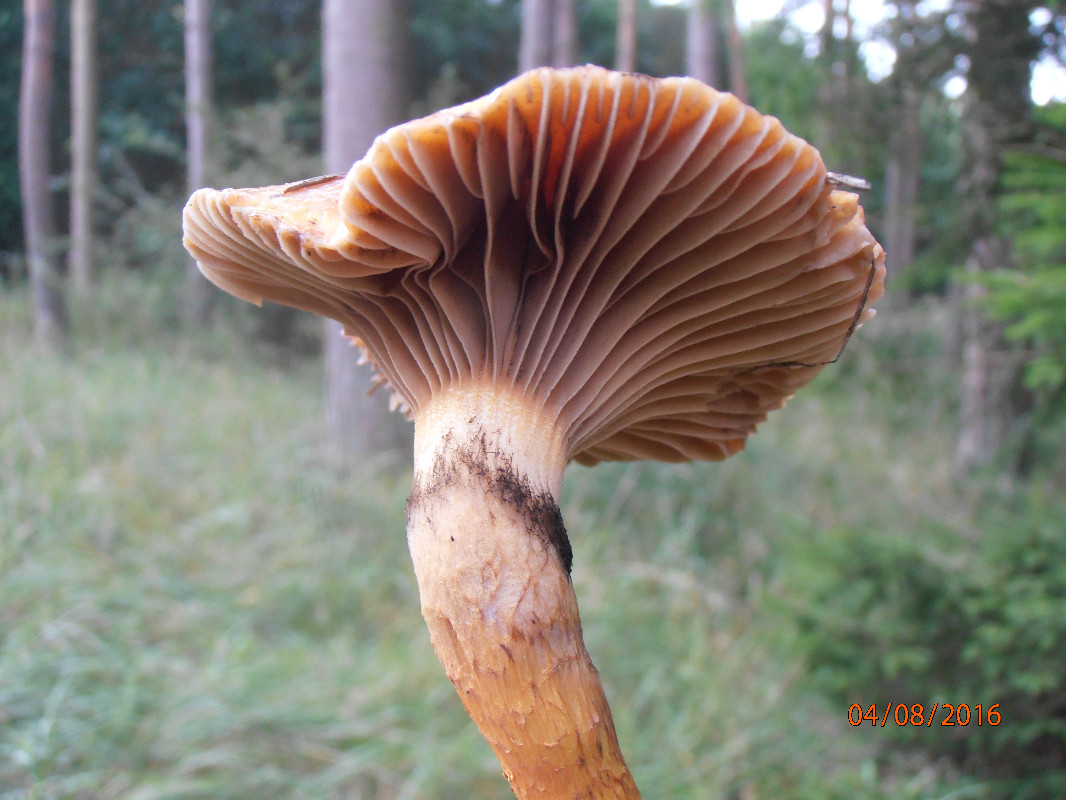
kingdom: Fungi
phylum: Basidiomycota
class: Agaricomycetes
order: Boletales
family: Gomphidiaceae
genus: Chroogomphus
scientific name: Chroogomphus rutilus
